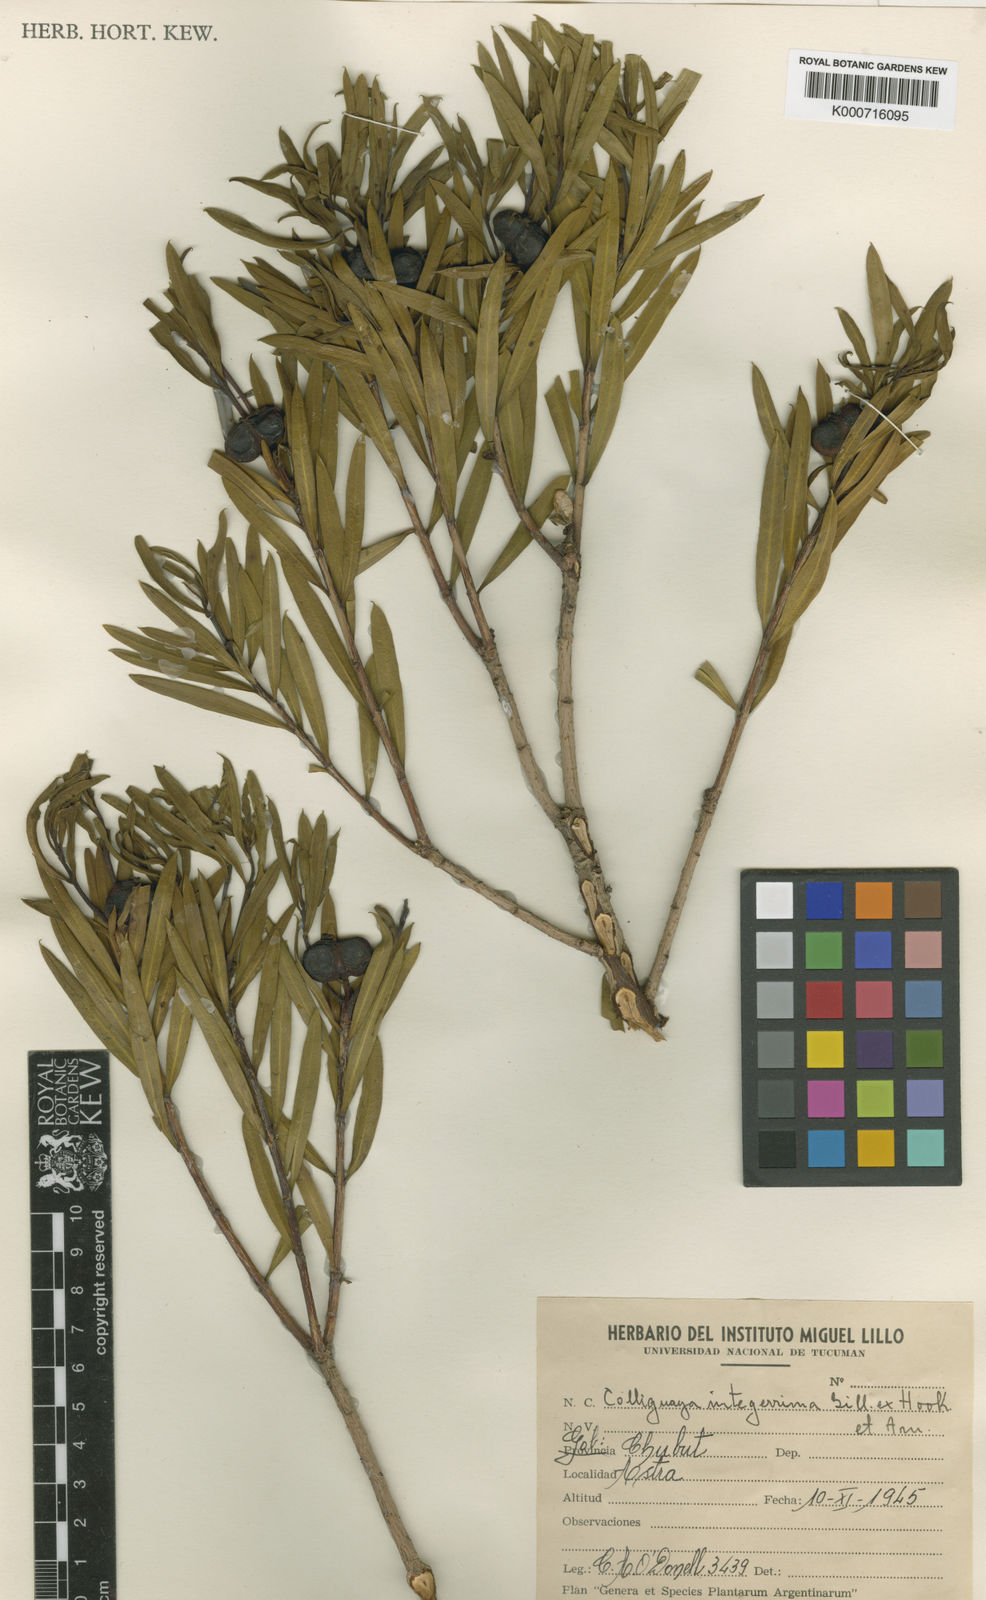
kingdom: Plantae
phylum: Tracheophyta
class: Magnoliopsida
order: Malpighiales
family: Euphorbiaceae
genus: Colliguaja
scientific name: Colliguaja integerrima
